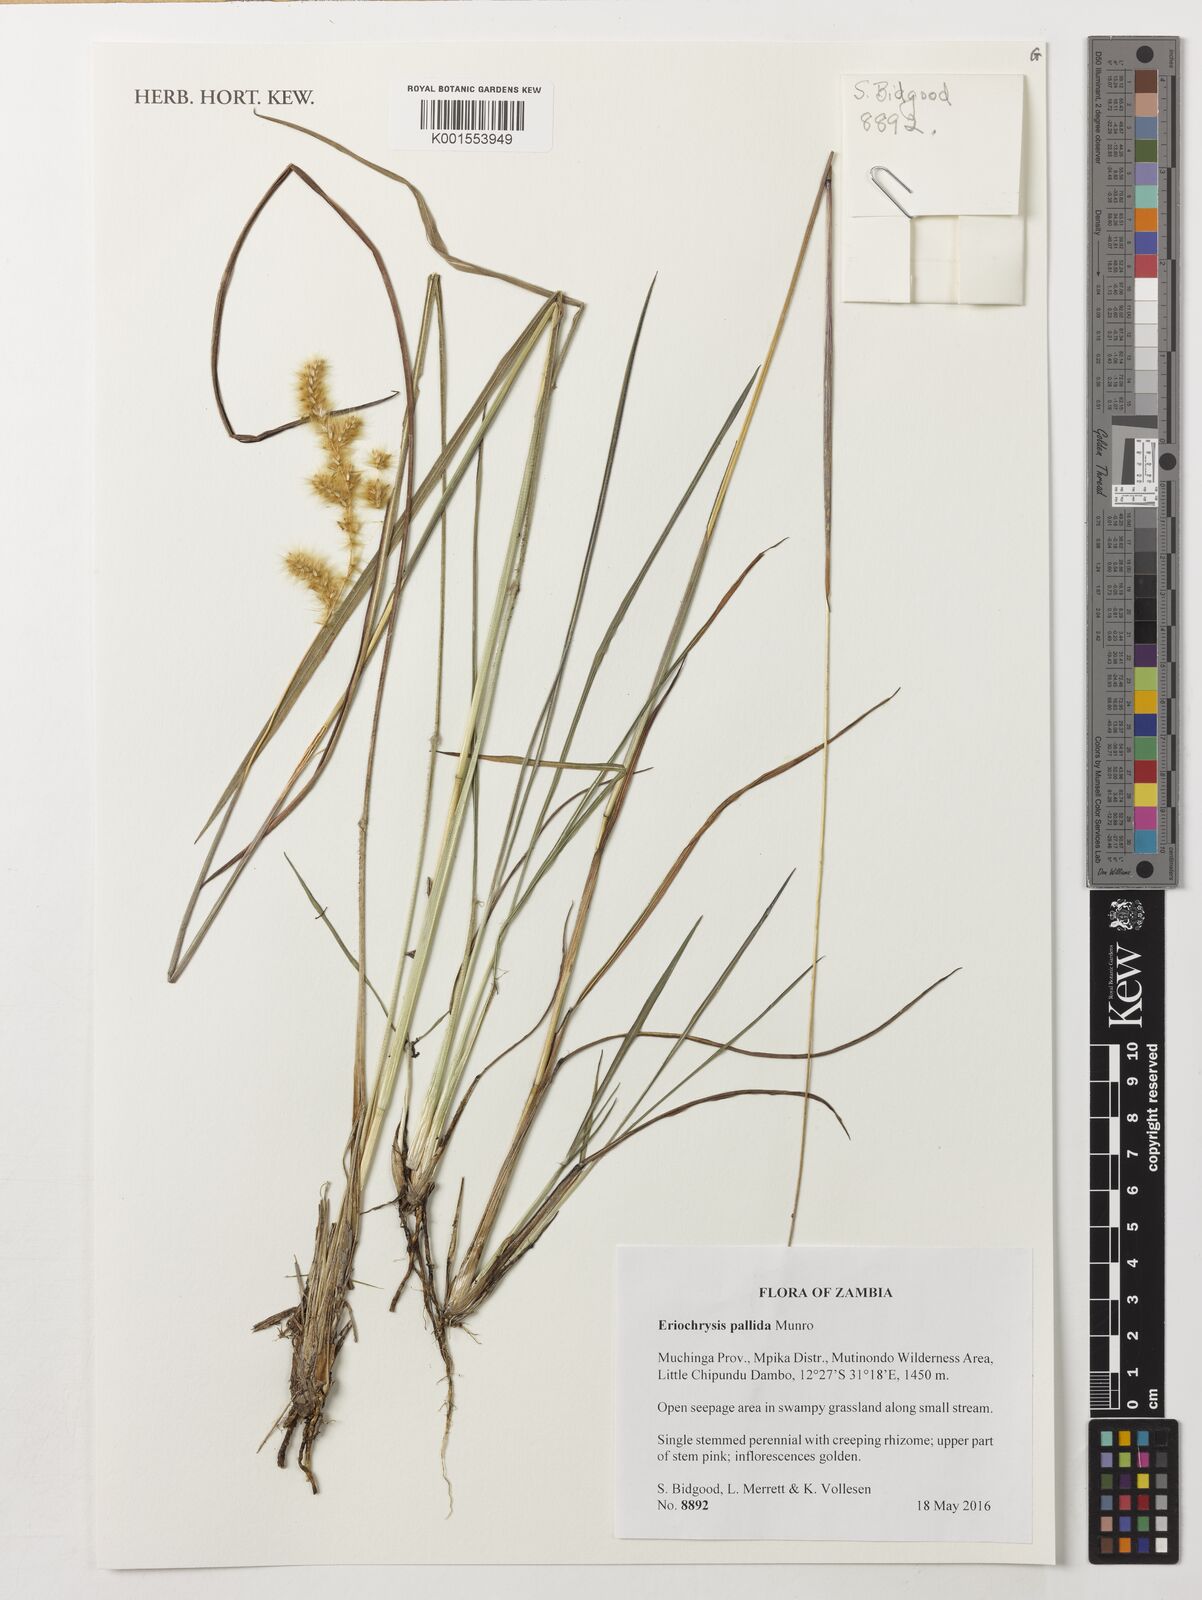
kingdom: Plantae
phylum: Tracheophyta
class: Liliopsida
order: Poales
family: Poaceae
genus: Eriochrysis
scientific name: Eriochrysis pallida
